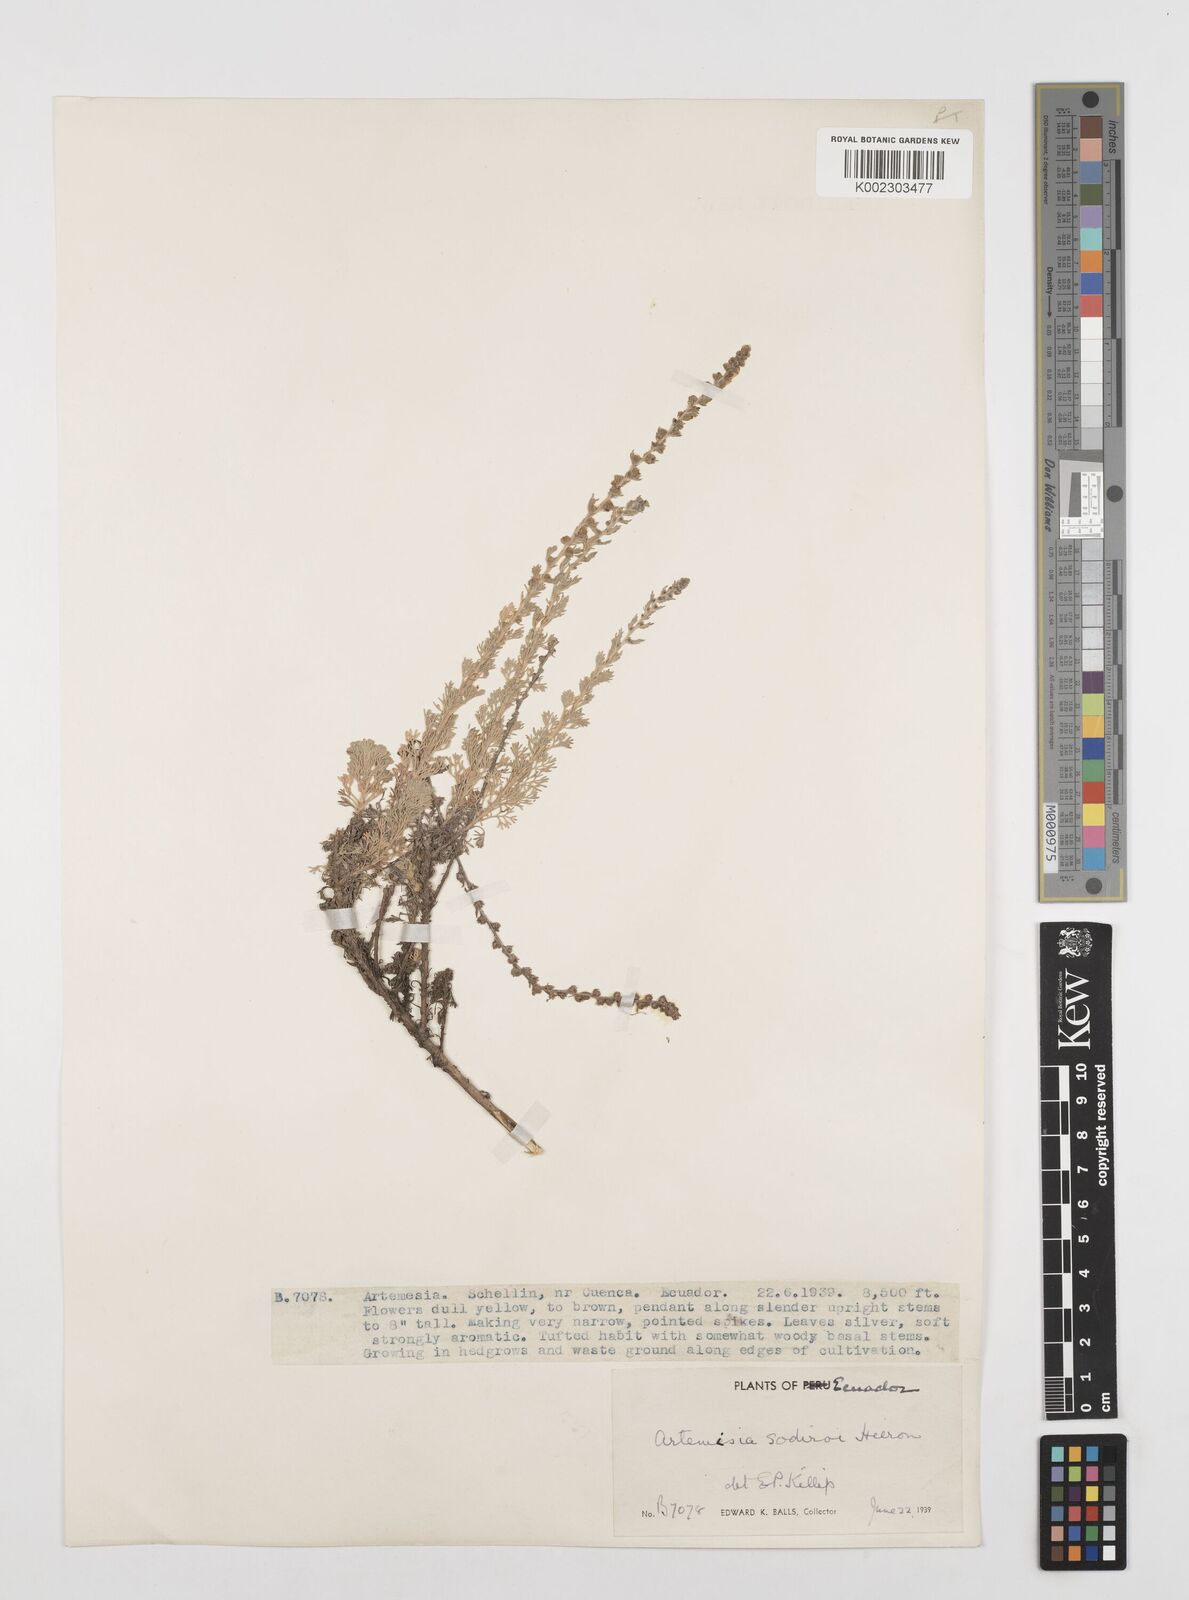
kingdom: Plantae
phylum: Tracheophyta
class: Magnoliopsida
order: Asterales
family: Asteraceae
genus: Artemisia
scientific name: Artemisia sodiroi
